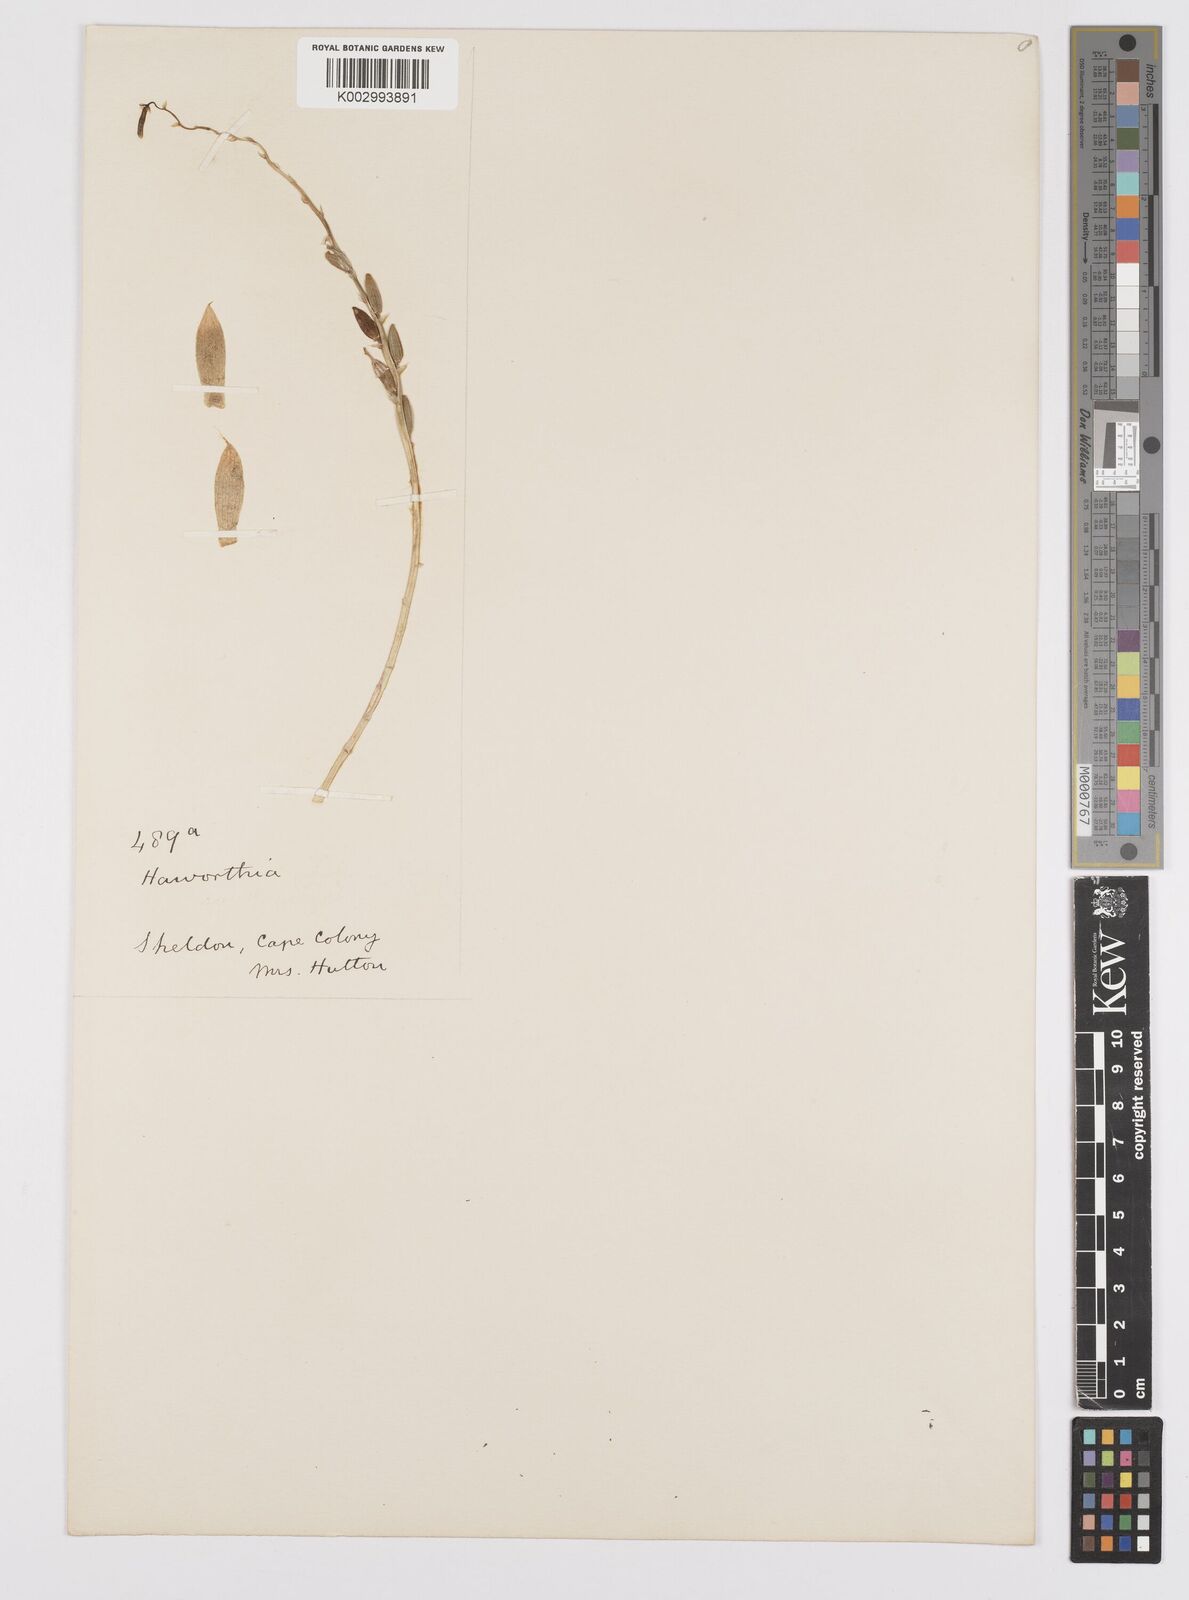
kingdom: Plantae
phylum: Tracheophyta
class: Liliopsida
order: Asparagales
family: Asphodelaceae
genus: Haworthia
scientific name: Haworthia mucronata
